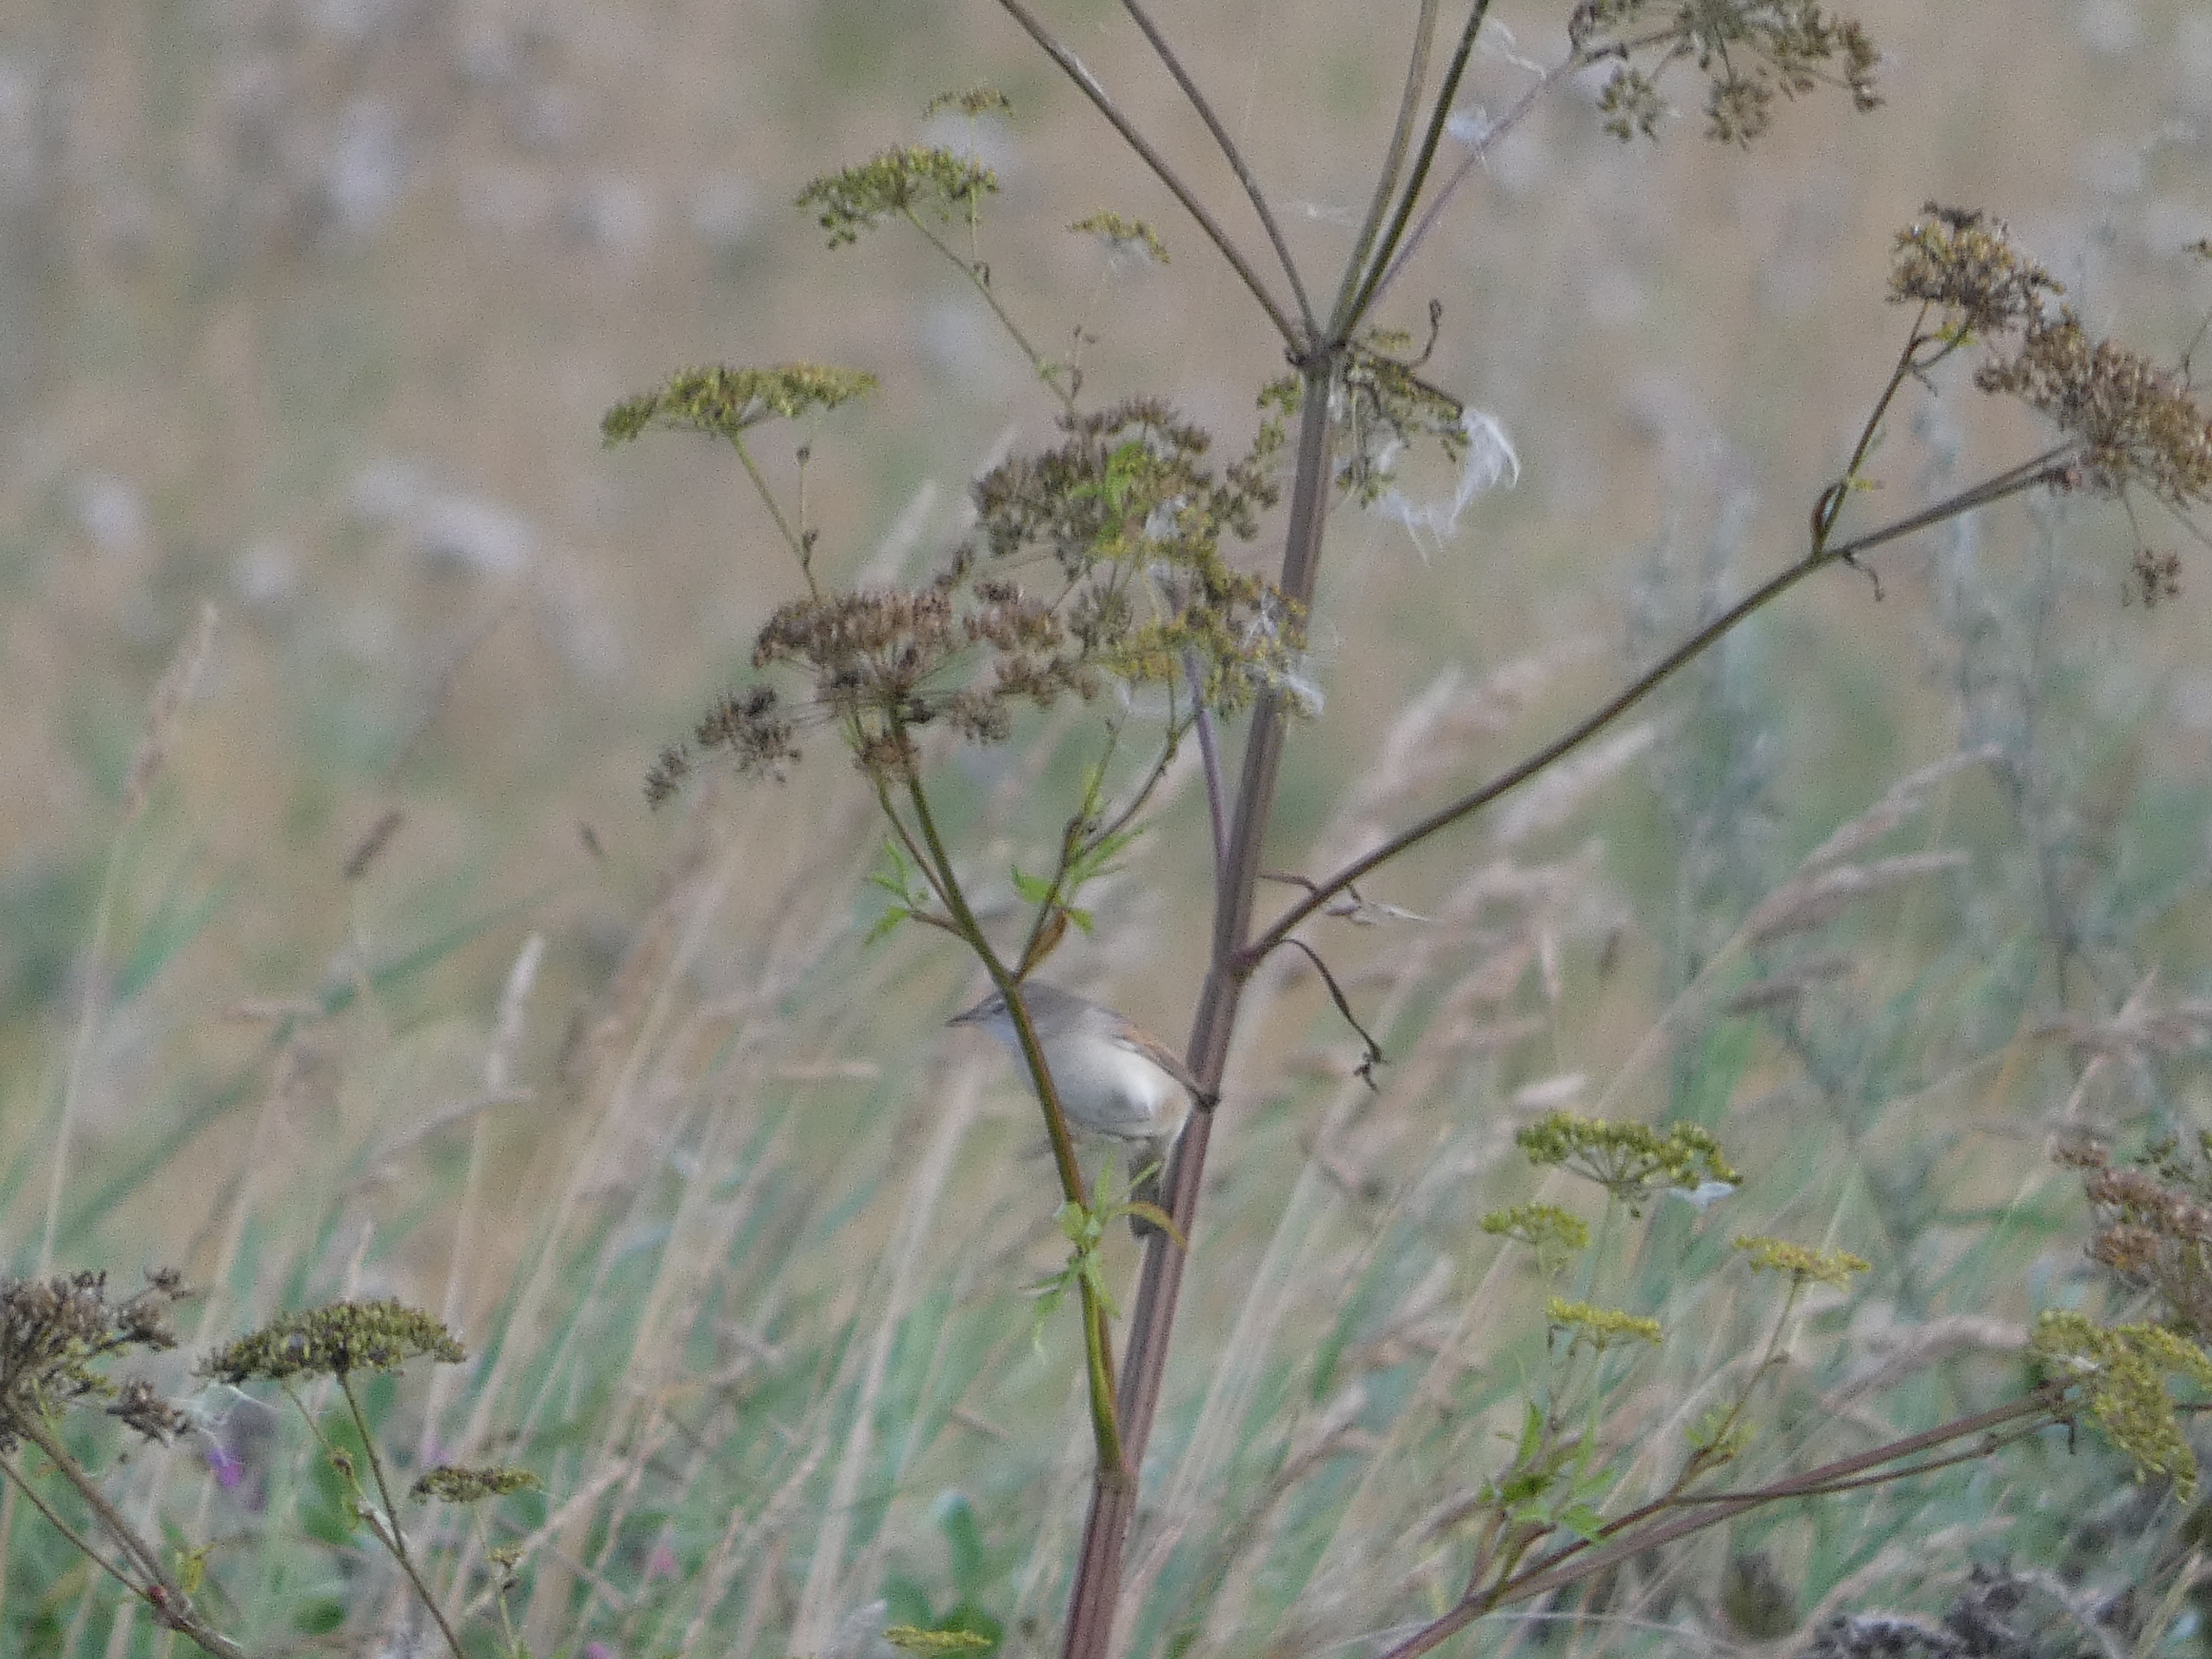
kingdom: Animalia
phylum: Chordata
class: Aves
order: Passeriformes
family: Sylviidae
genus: Sylvia
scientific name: Sylvia communis
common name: Tornsanger
